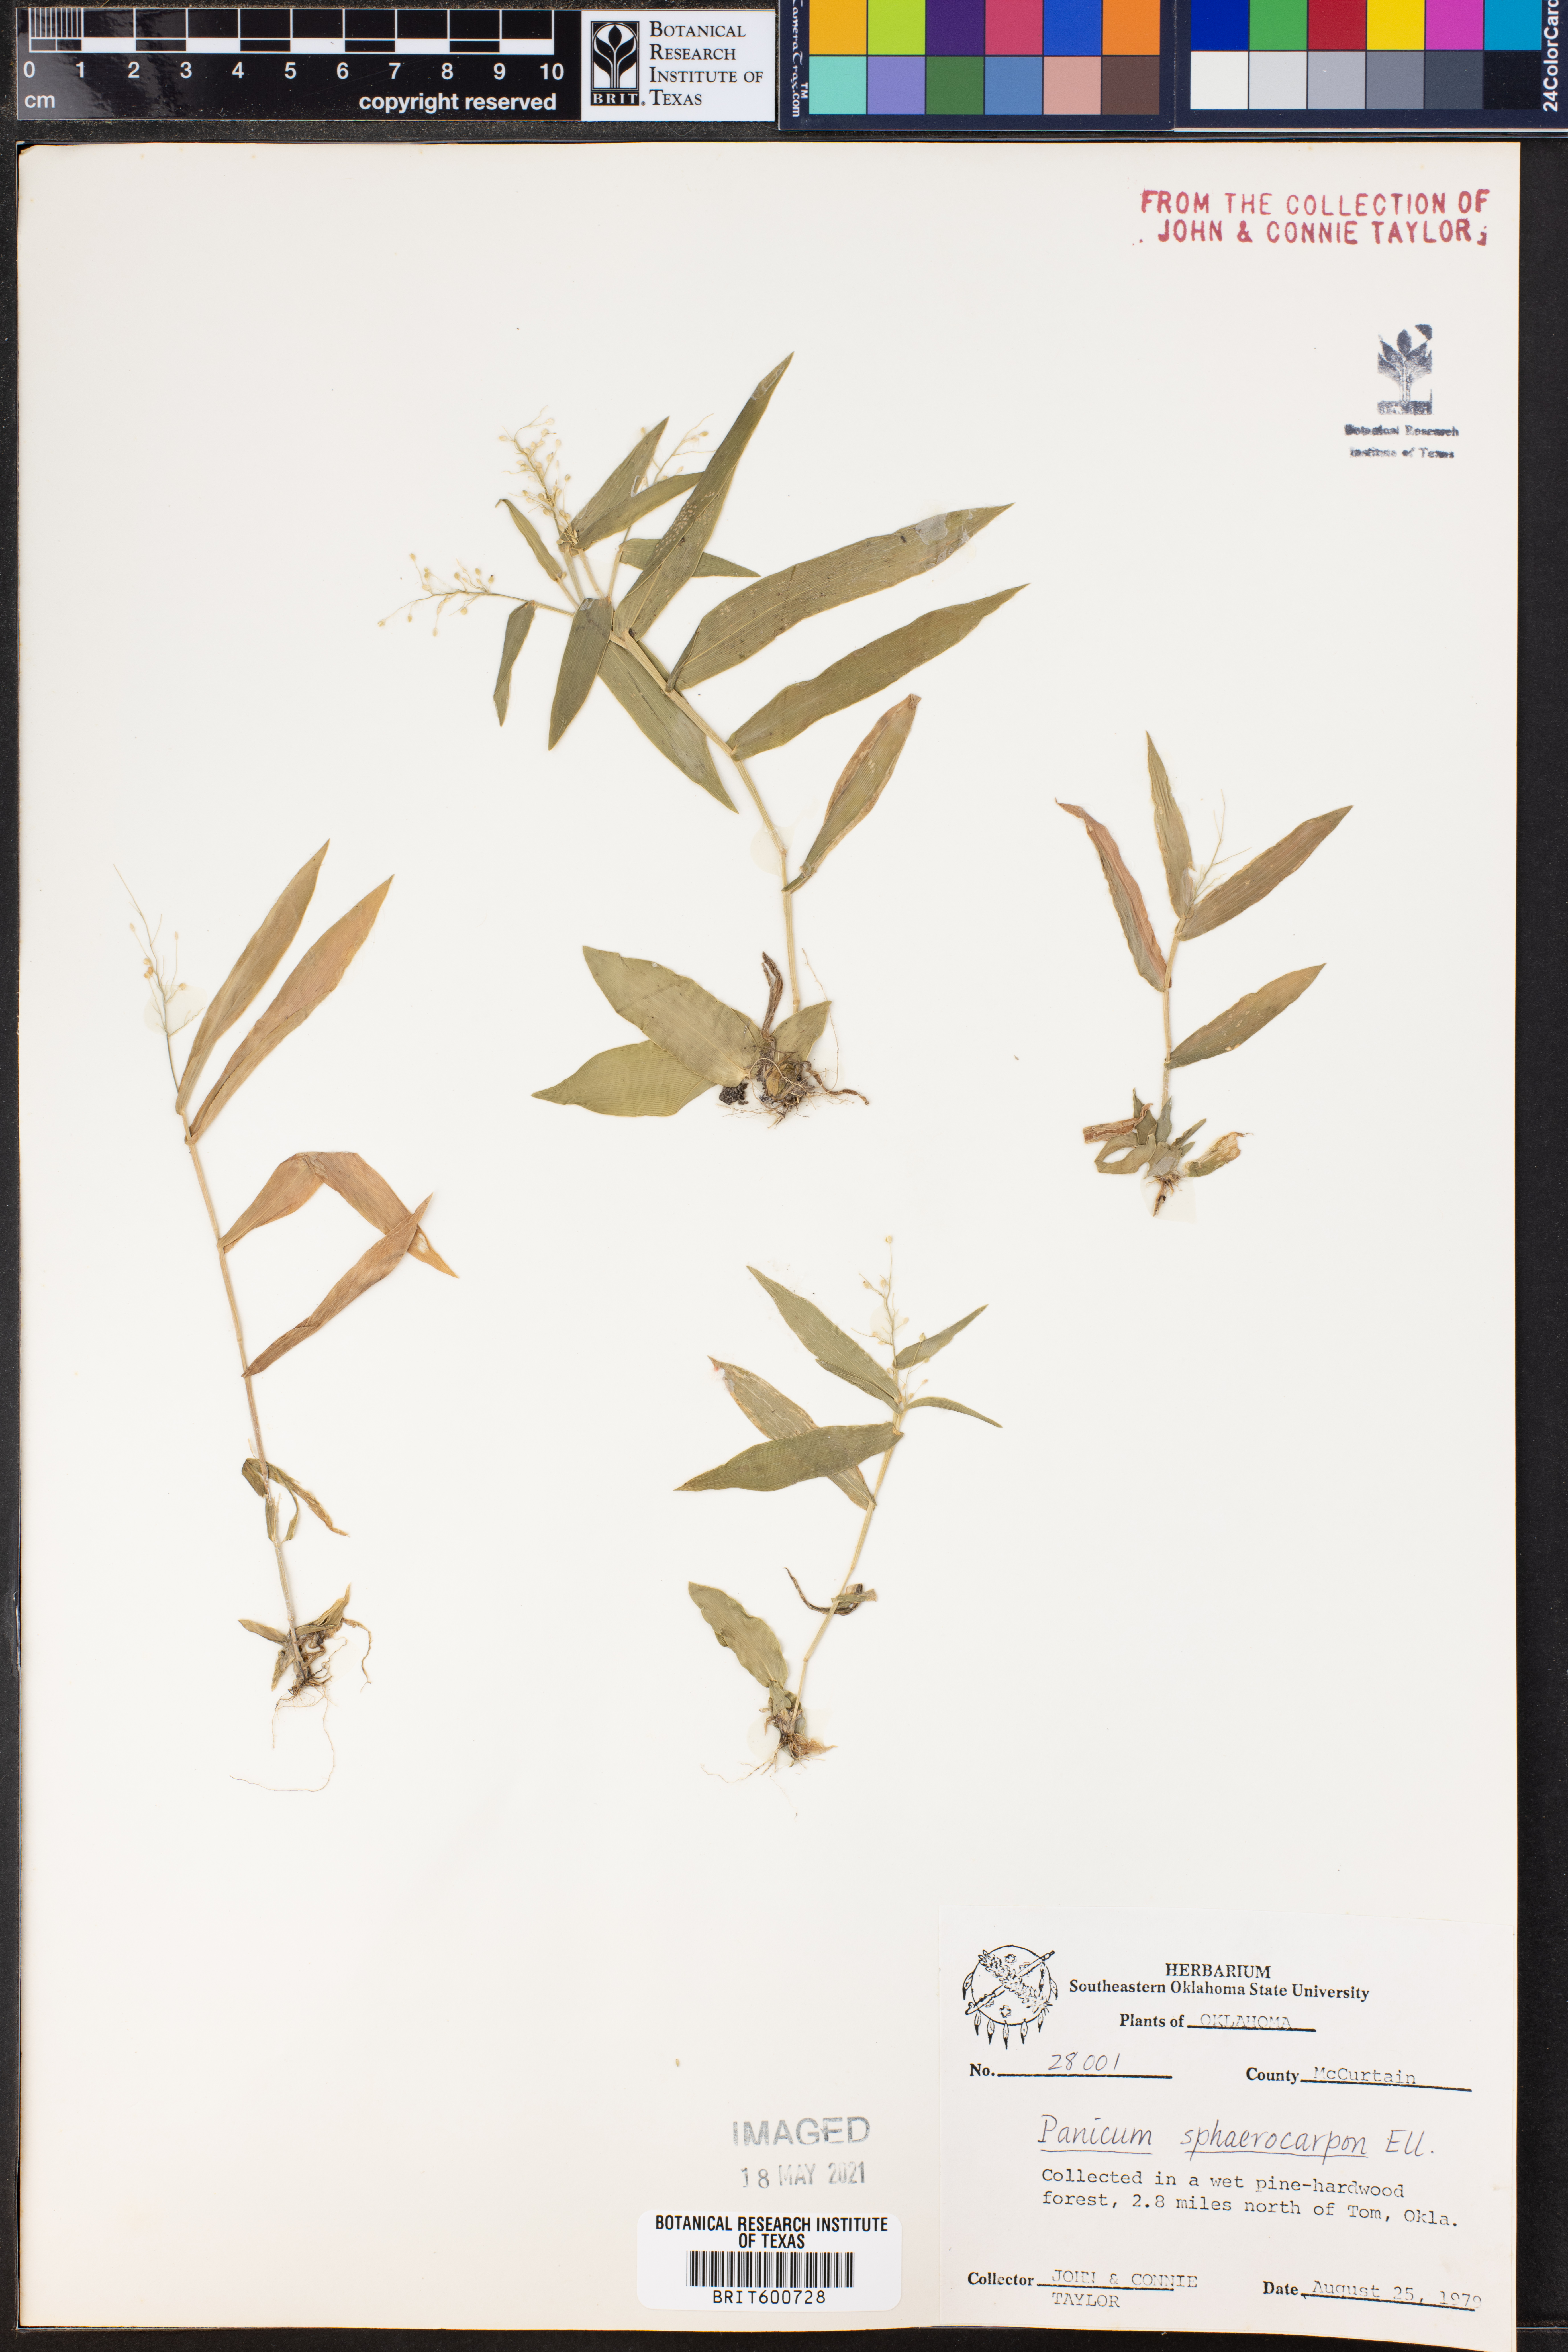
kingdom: Plantae
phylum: Tracheophyta
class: Liliopsida
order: Poales
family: Poaceae
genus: Dichanthelium
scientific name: Dichanthelium sphaerocarpon
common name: Round-fruited panicgrass
